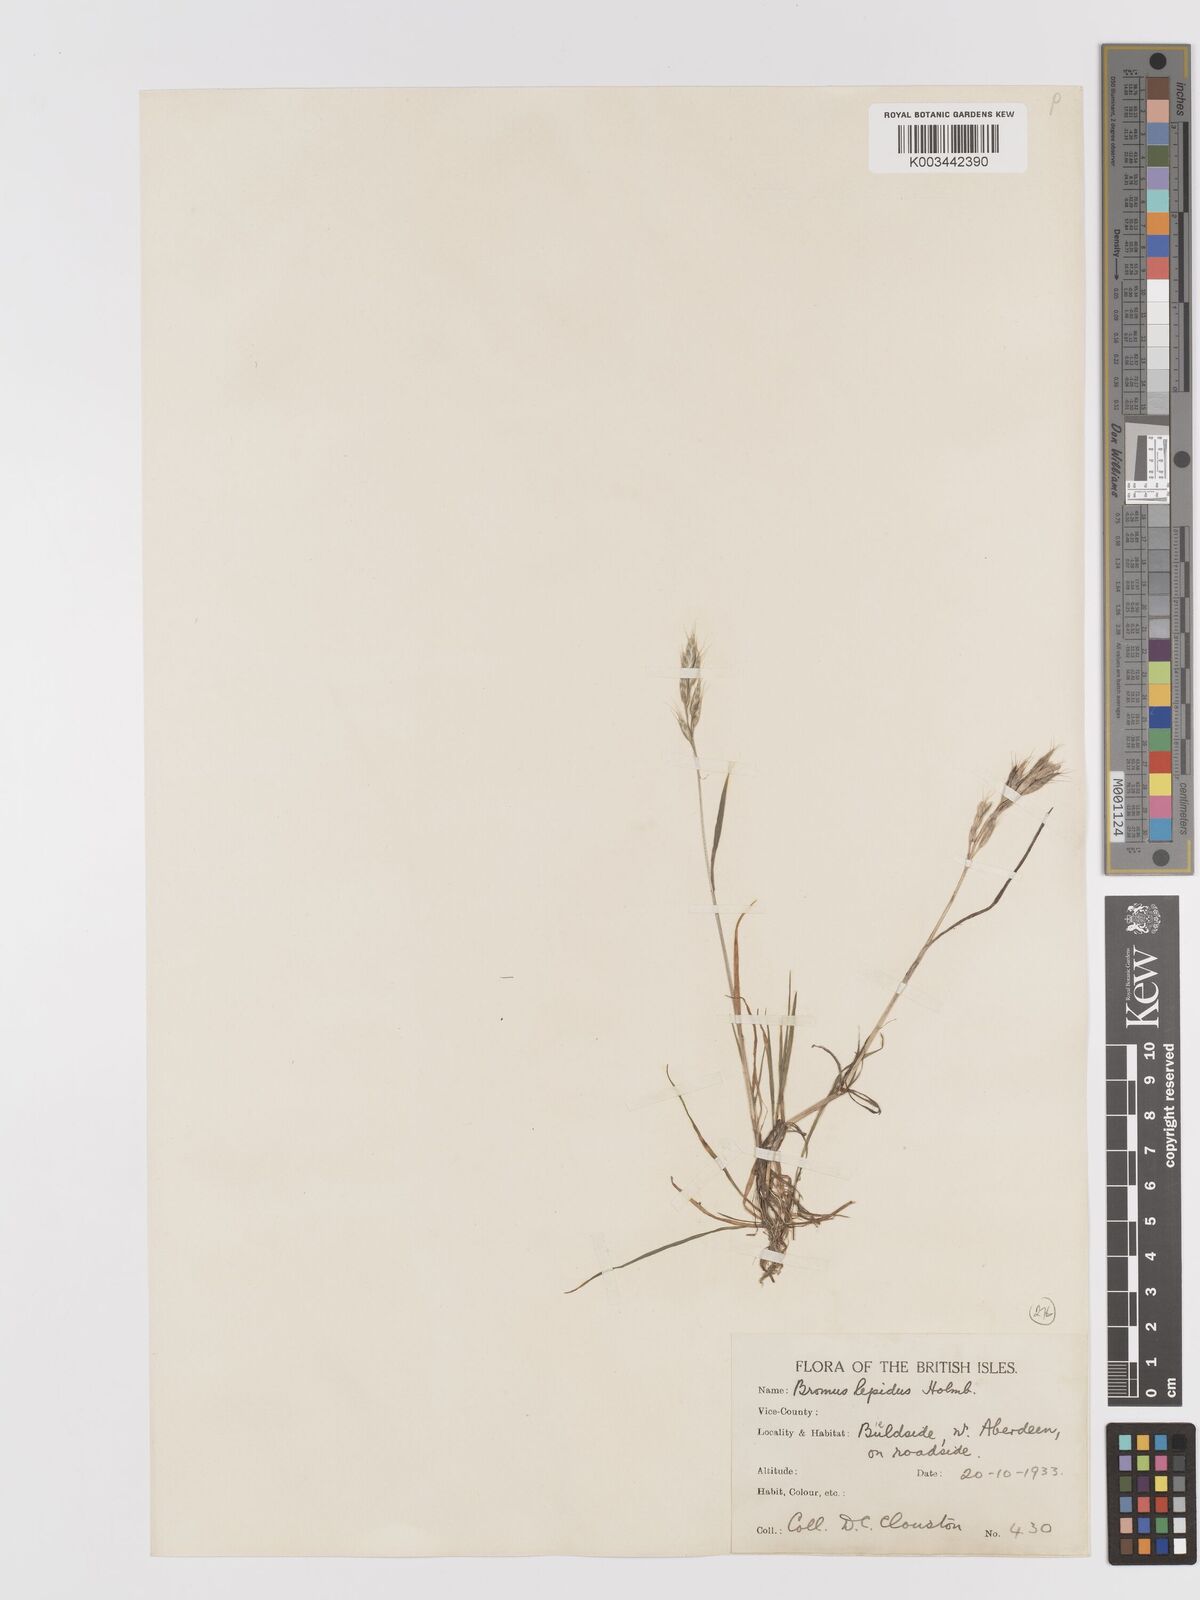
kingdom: Plantae
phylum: Tracheophyta
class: Liliopsida
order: Poales
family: Poaceae
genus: Bromus
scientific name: Bromus lepidus
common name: Slender soft-brome
